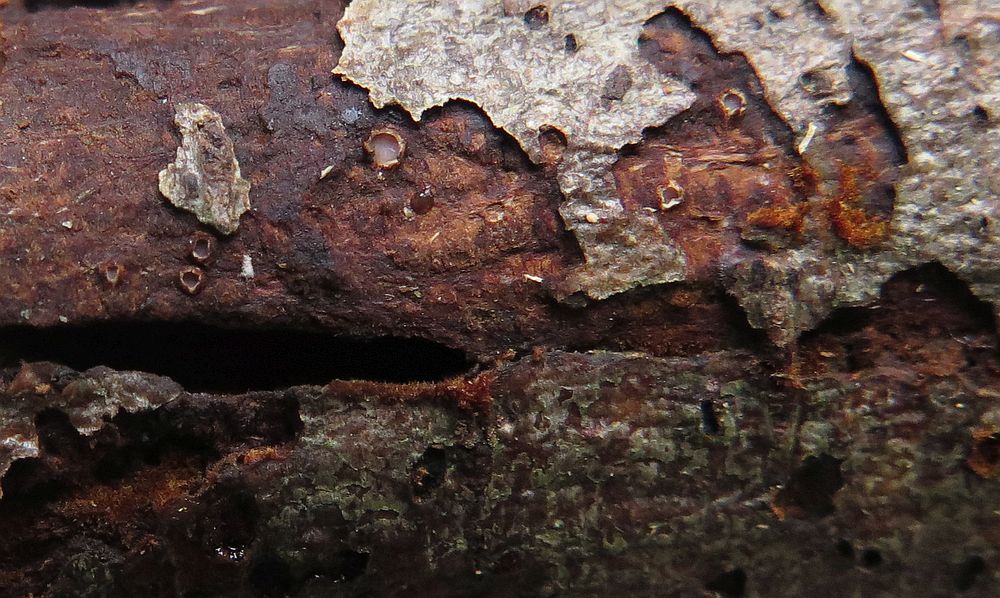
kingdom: Fungi
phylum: Ascomycota
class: Lecanoromycetes
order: Ostropales
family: Stictidaceae
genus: Karstenia
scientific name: Karstenia rhopaloides
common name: grårosa barkhul
